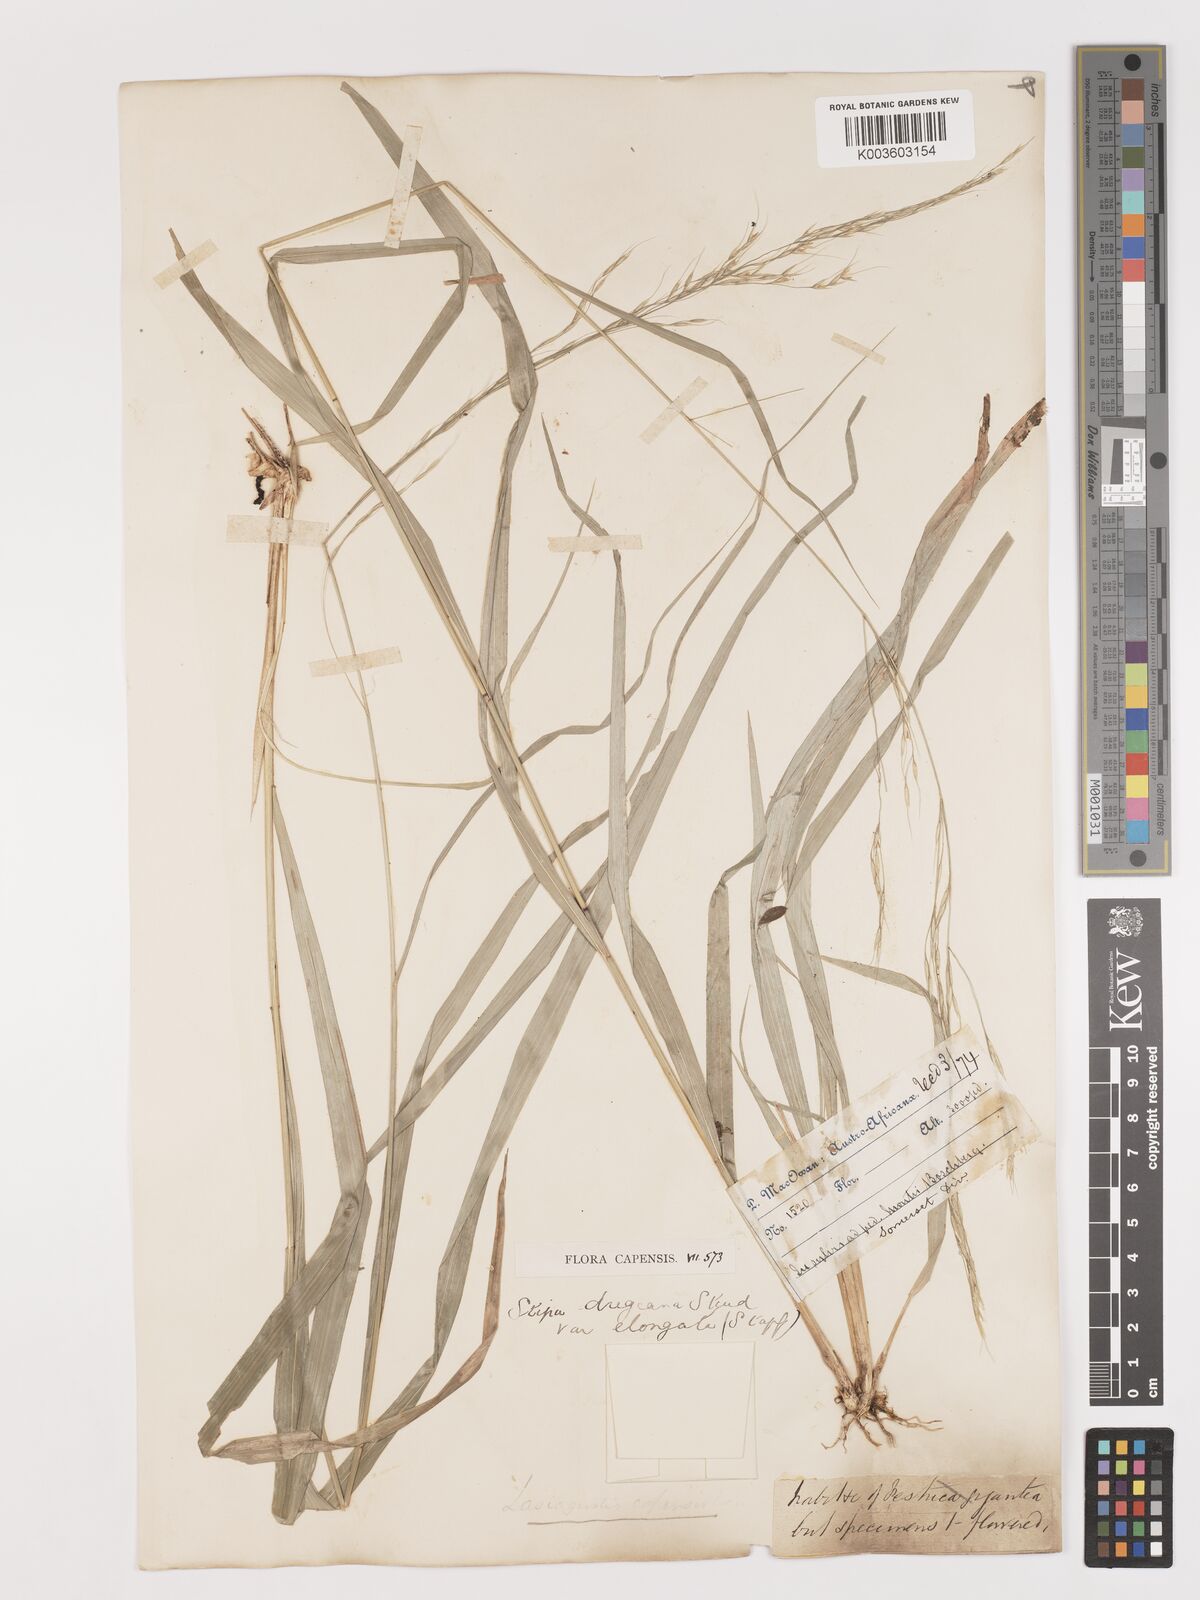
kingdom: Plantae
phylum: Tracheophyta
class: Liliopsida
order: Poales
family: Poaceae
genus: Stipa
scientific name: Stipa dregeana
